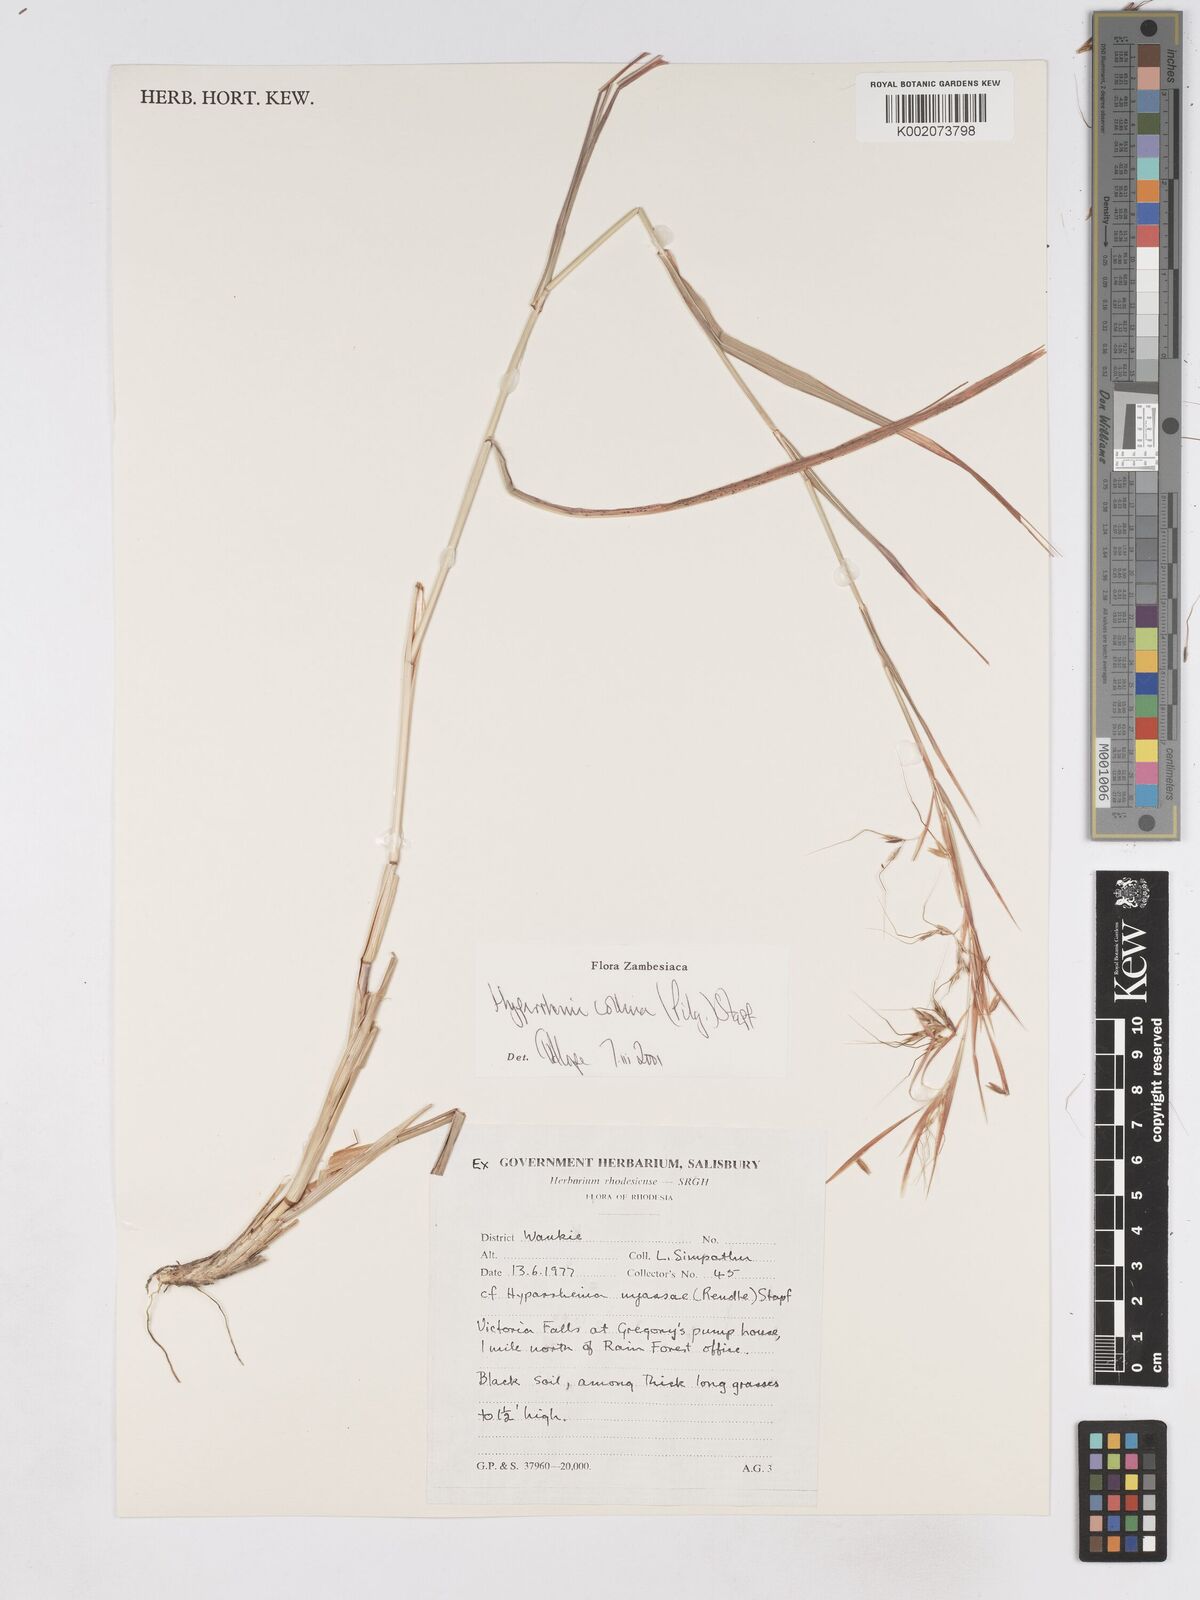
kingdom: Plantae
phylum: Tracheophyta
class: Liliopsida
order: Poales
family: Poaceae
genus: Hyparrhenia
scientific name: Hyparrhenia collina
